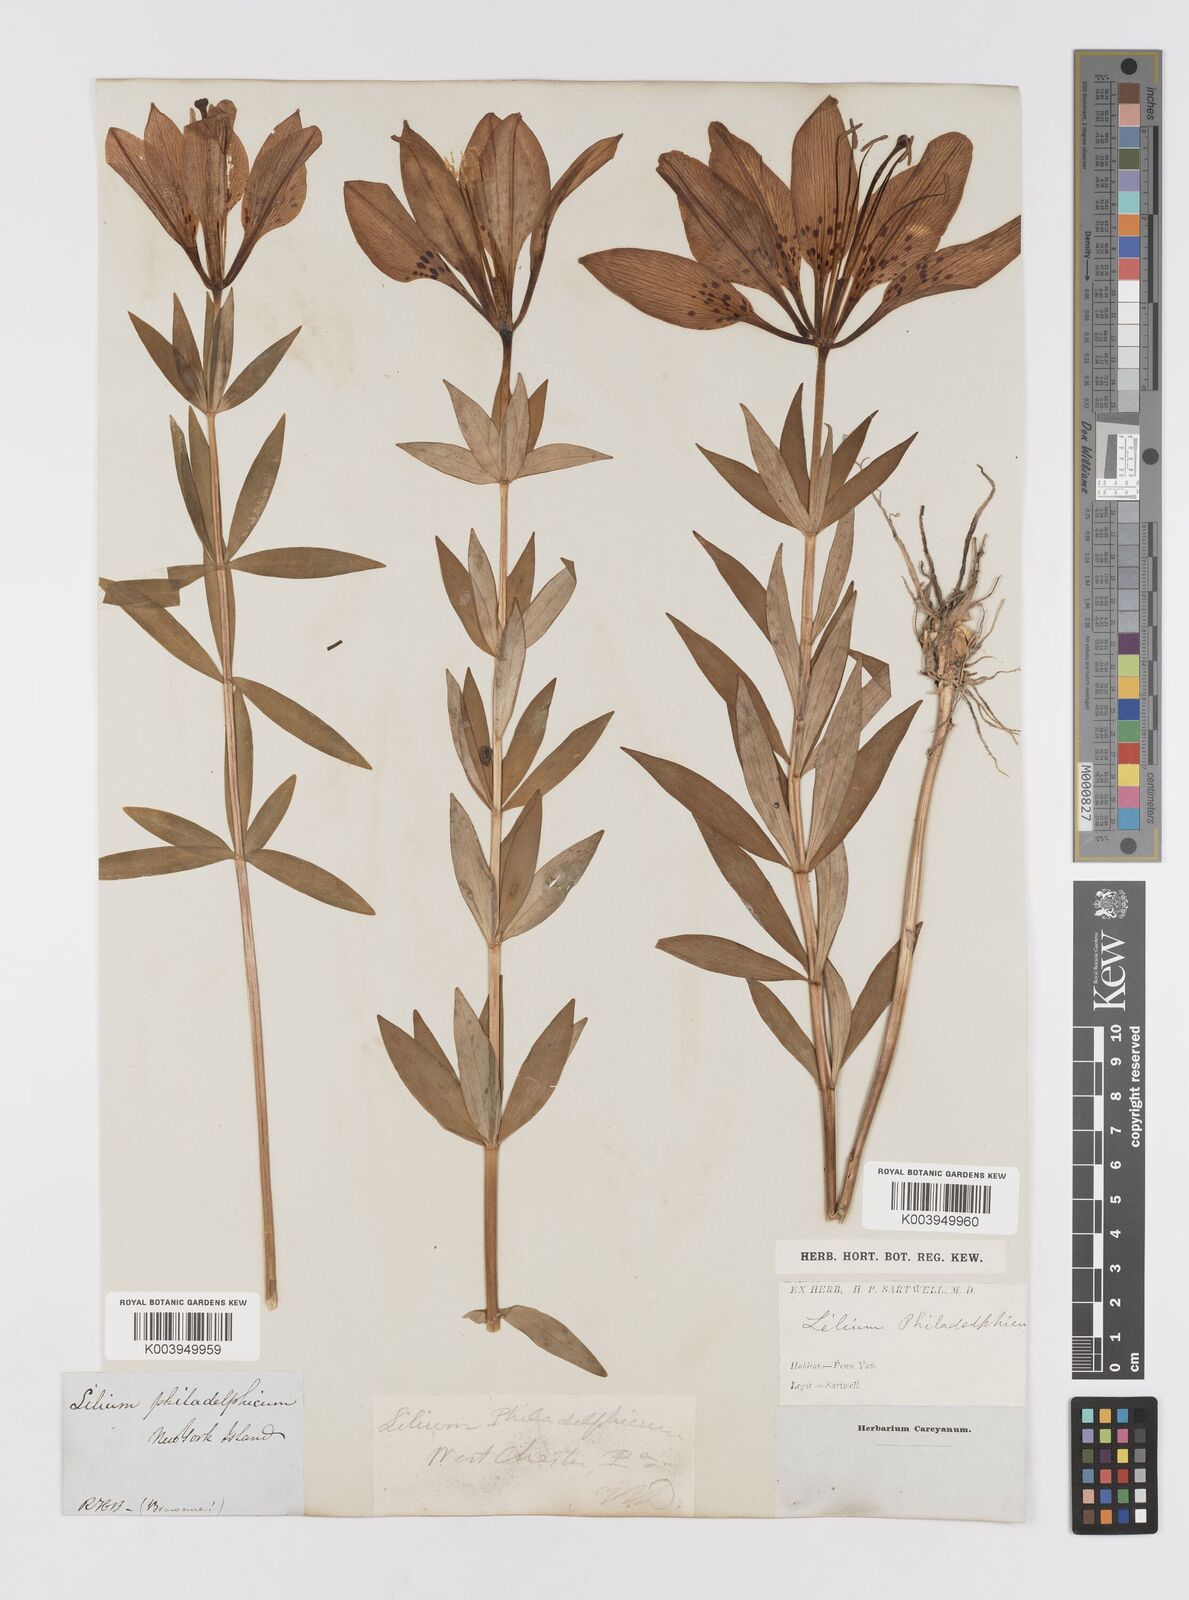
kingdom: Plantae
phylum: Tracheophyta
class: Liliopsida
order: Liliales
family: Liliaceae
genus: Lilium
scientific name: Lilium philadelphicum
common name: Red lily
